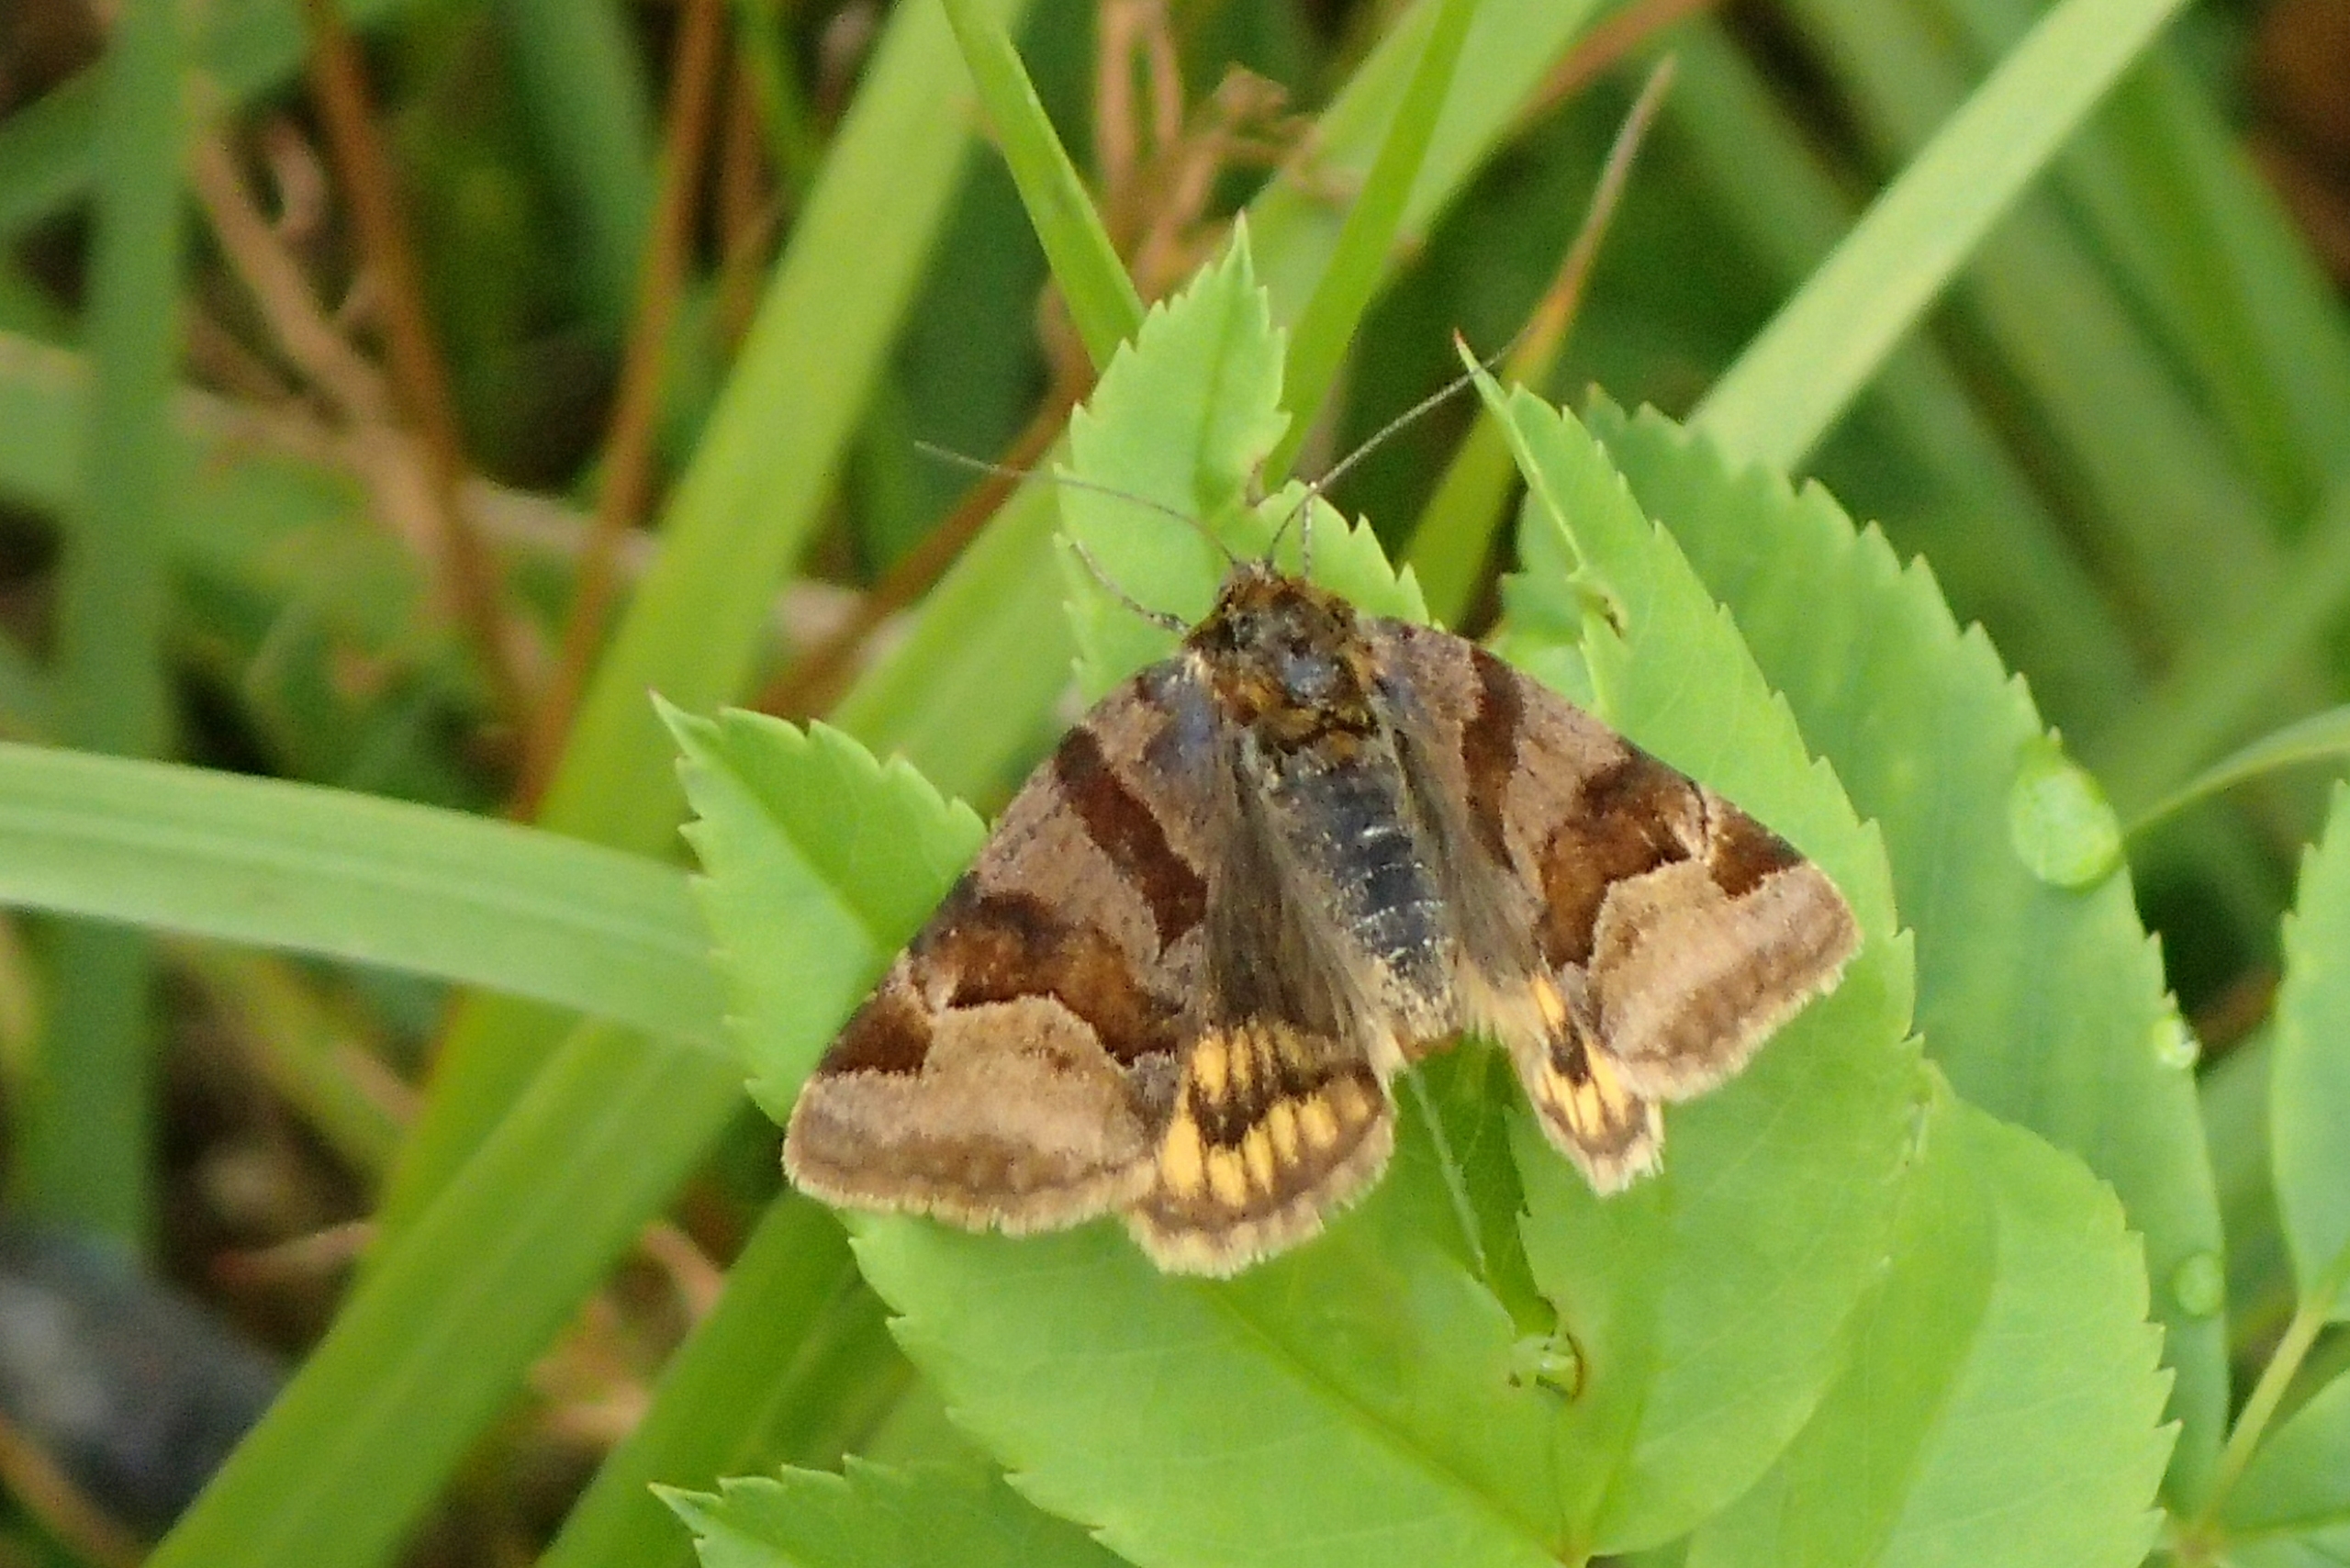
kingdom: Animalia
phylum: Arthropoda
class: Insecta
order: Lepidoptera
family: Erebidae
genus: Euclidia
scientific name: Euclidia glyphica
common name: Brun kløverugle
